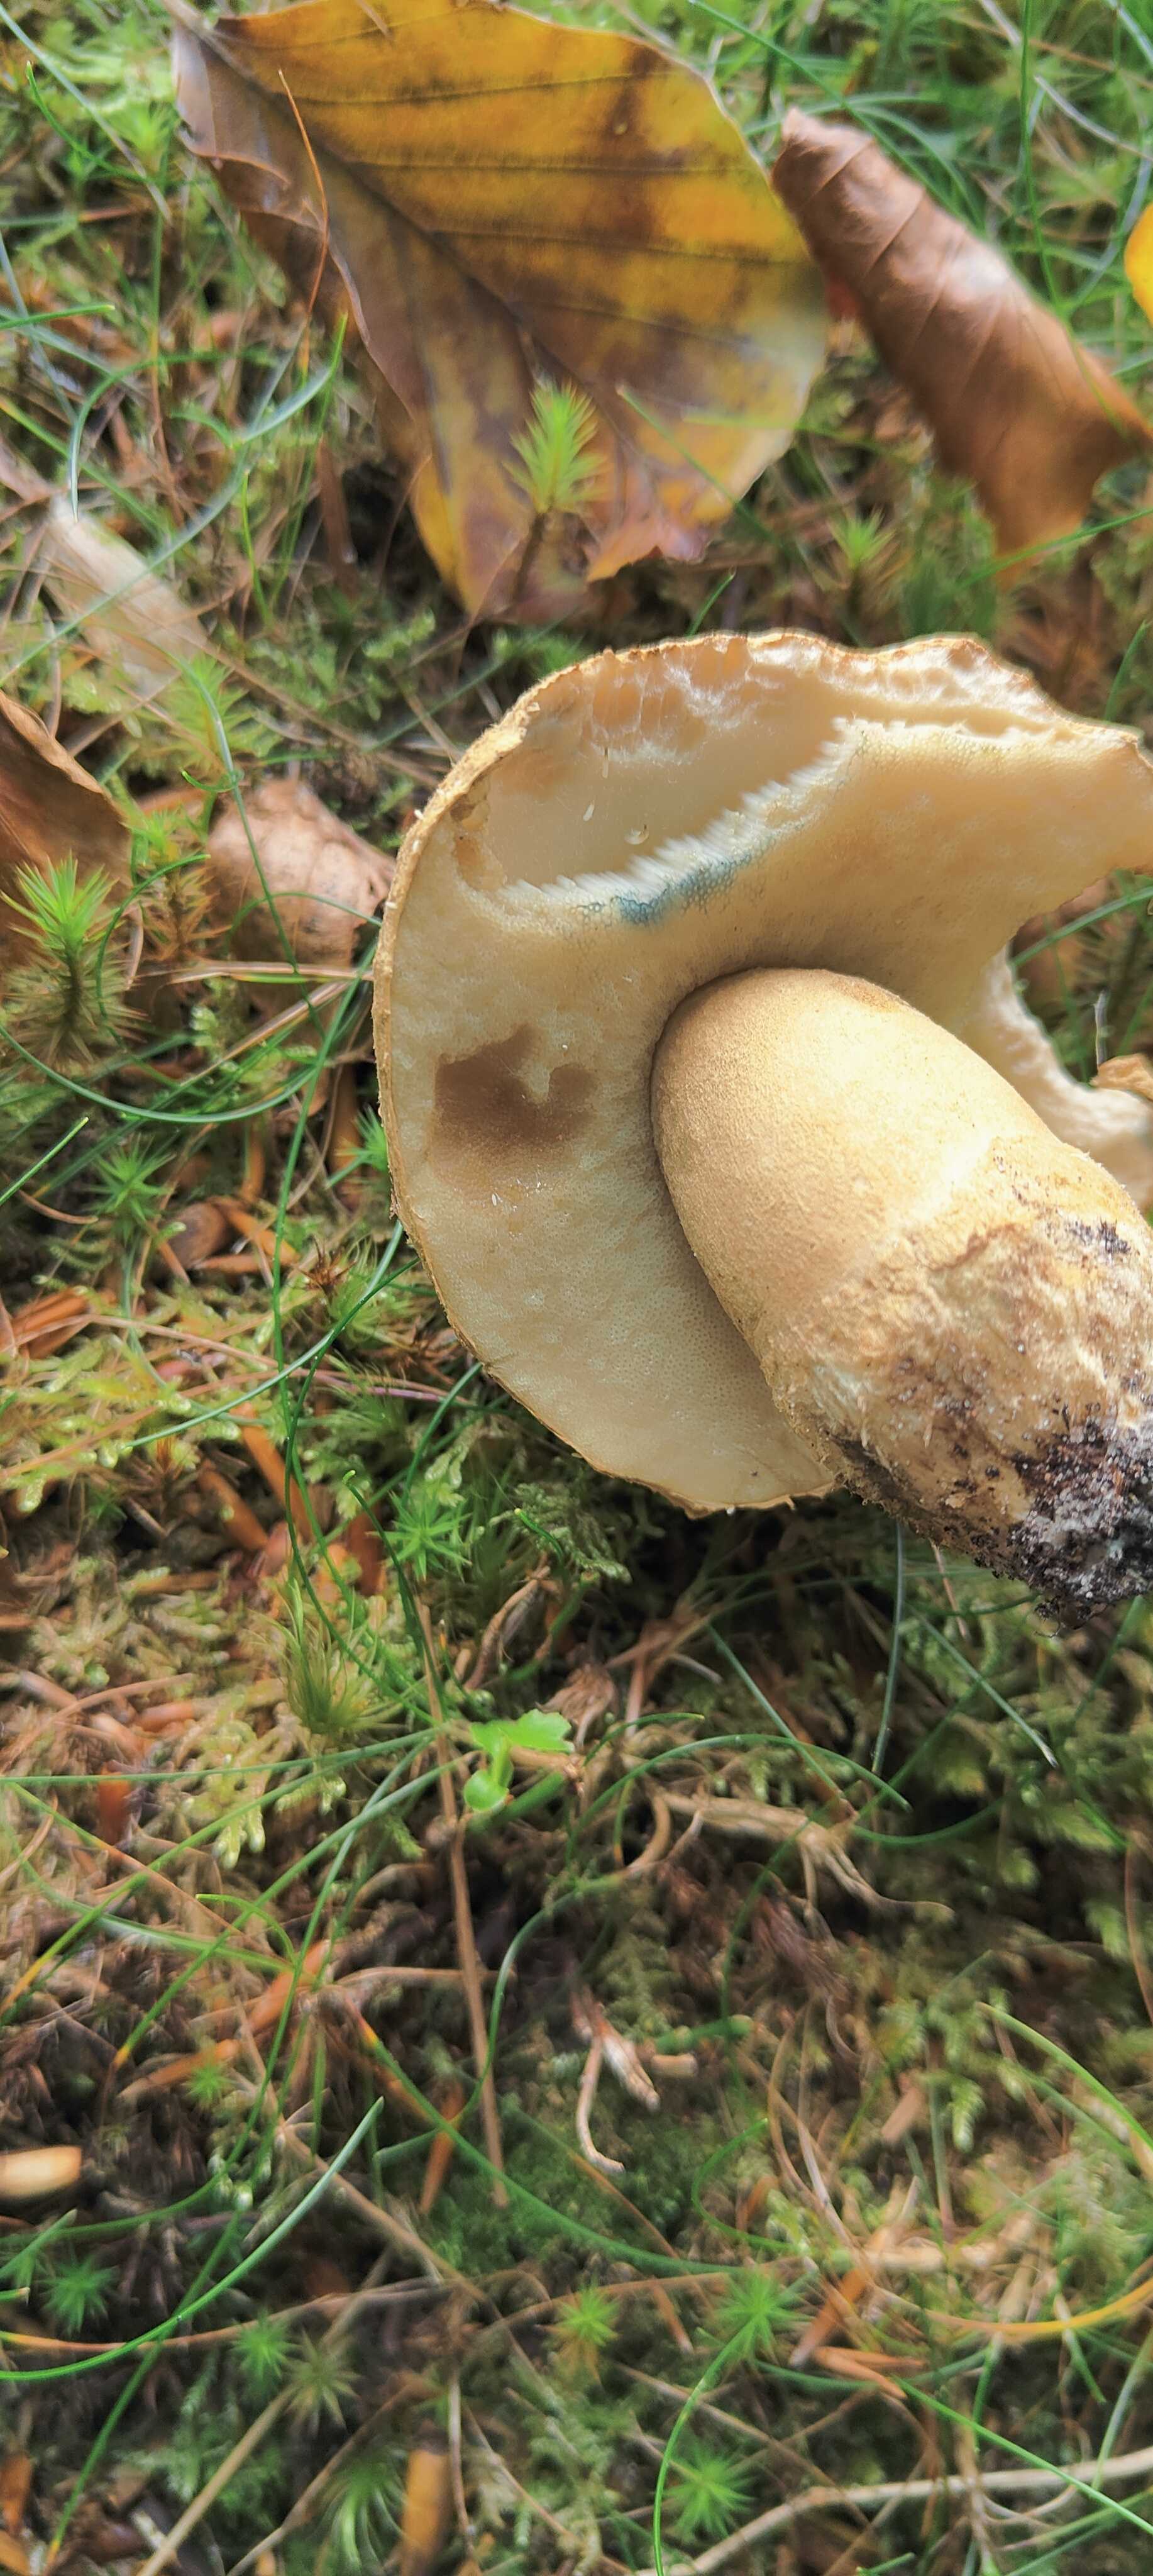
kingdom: Fungi
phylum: Basidiomycota
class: Agaricomycetes
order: Boletales
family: Gyroporaceae
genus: Gyroporus
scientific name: Gyroporus cyanescens
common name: blånende kammerrørhat
